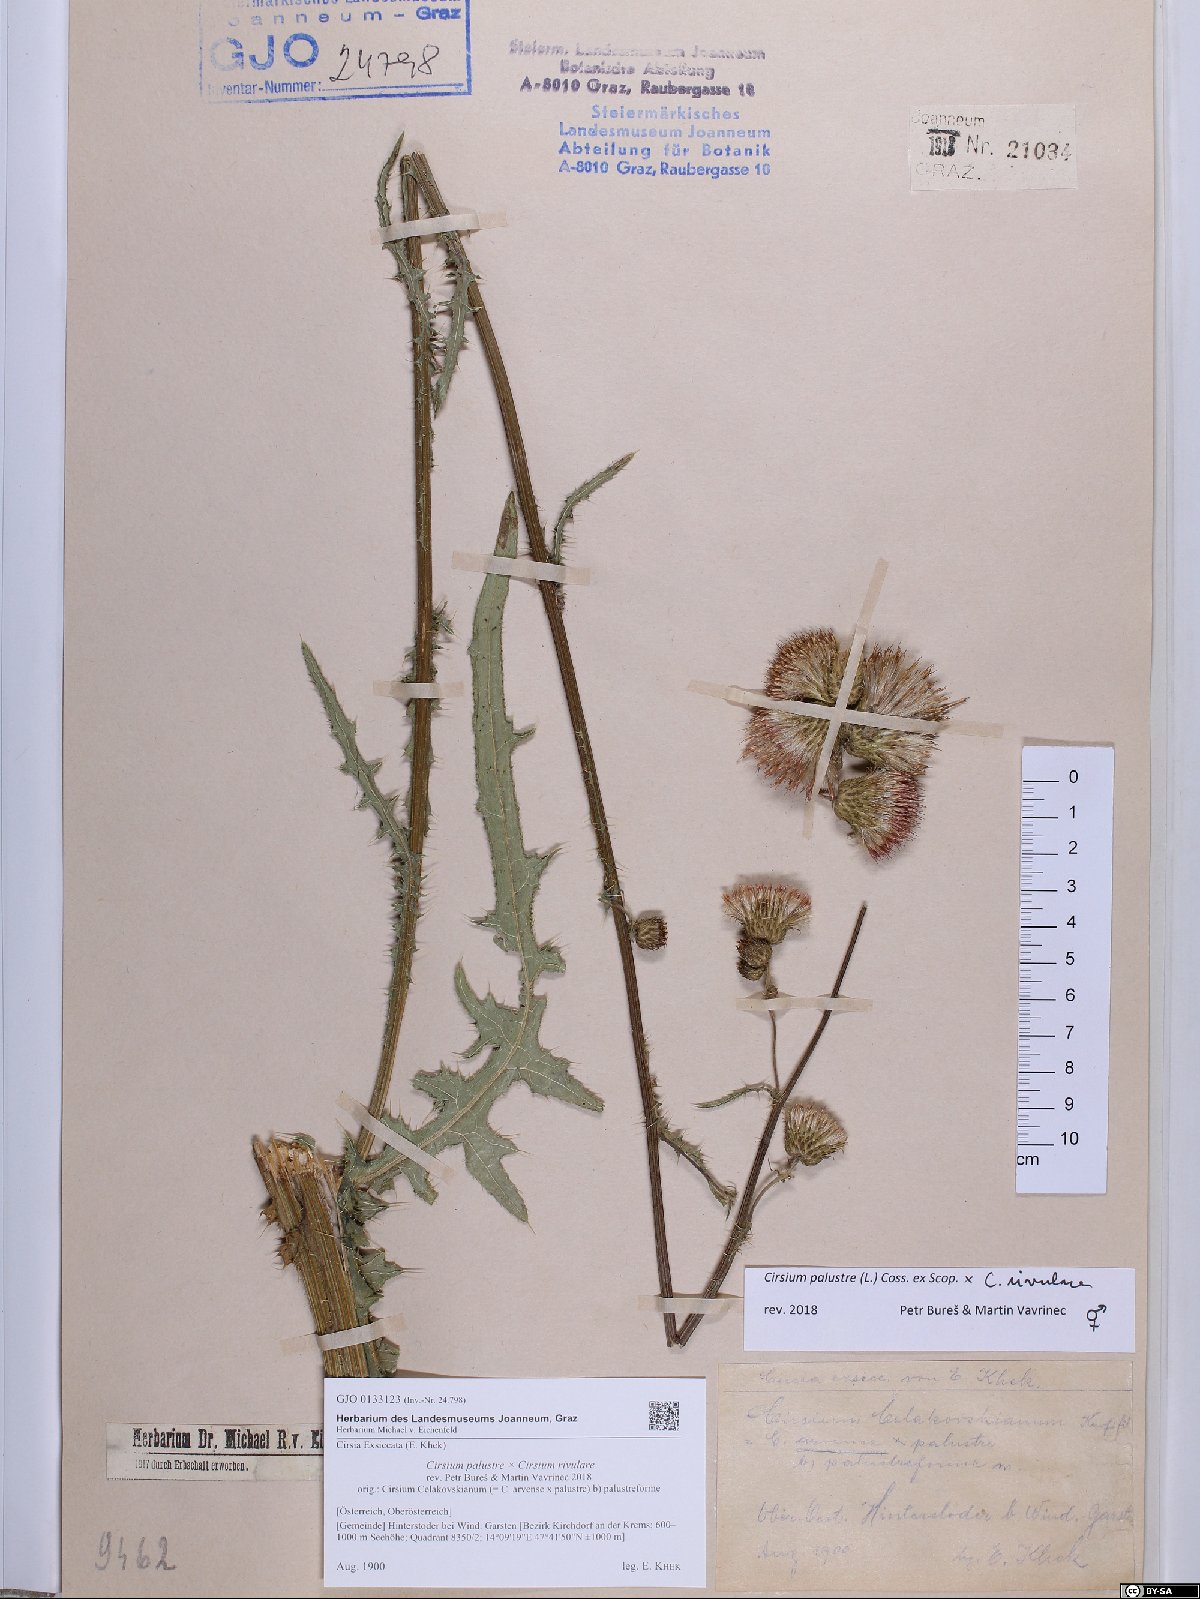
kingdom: Plantae
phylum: Tracheophyta
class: Magnoliopsida
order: Asterales
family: Asteraceae
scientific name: Asteraceae
